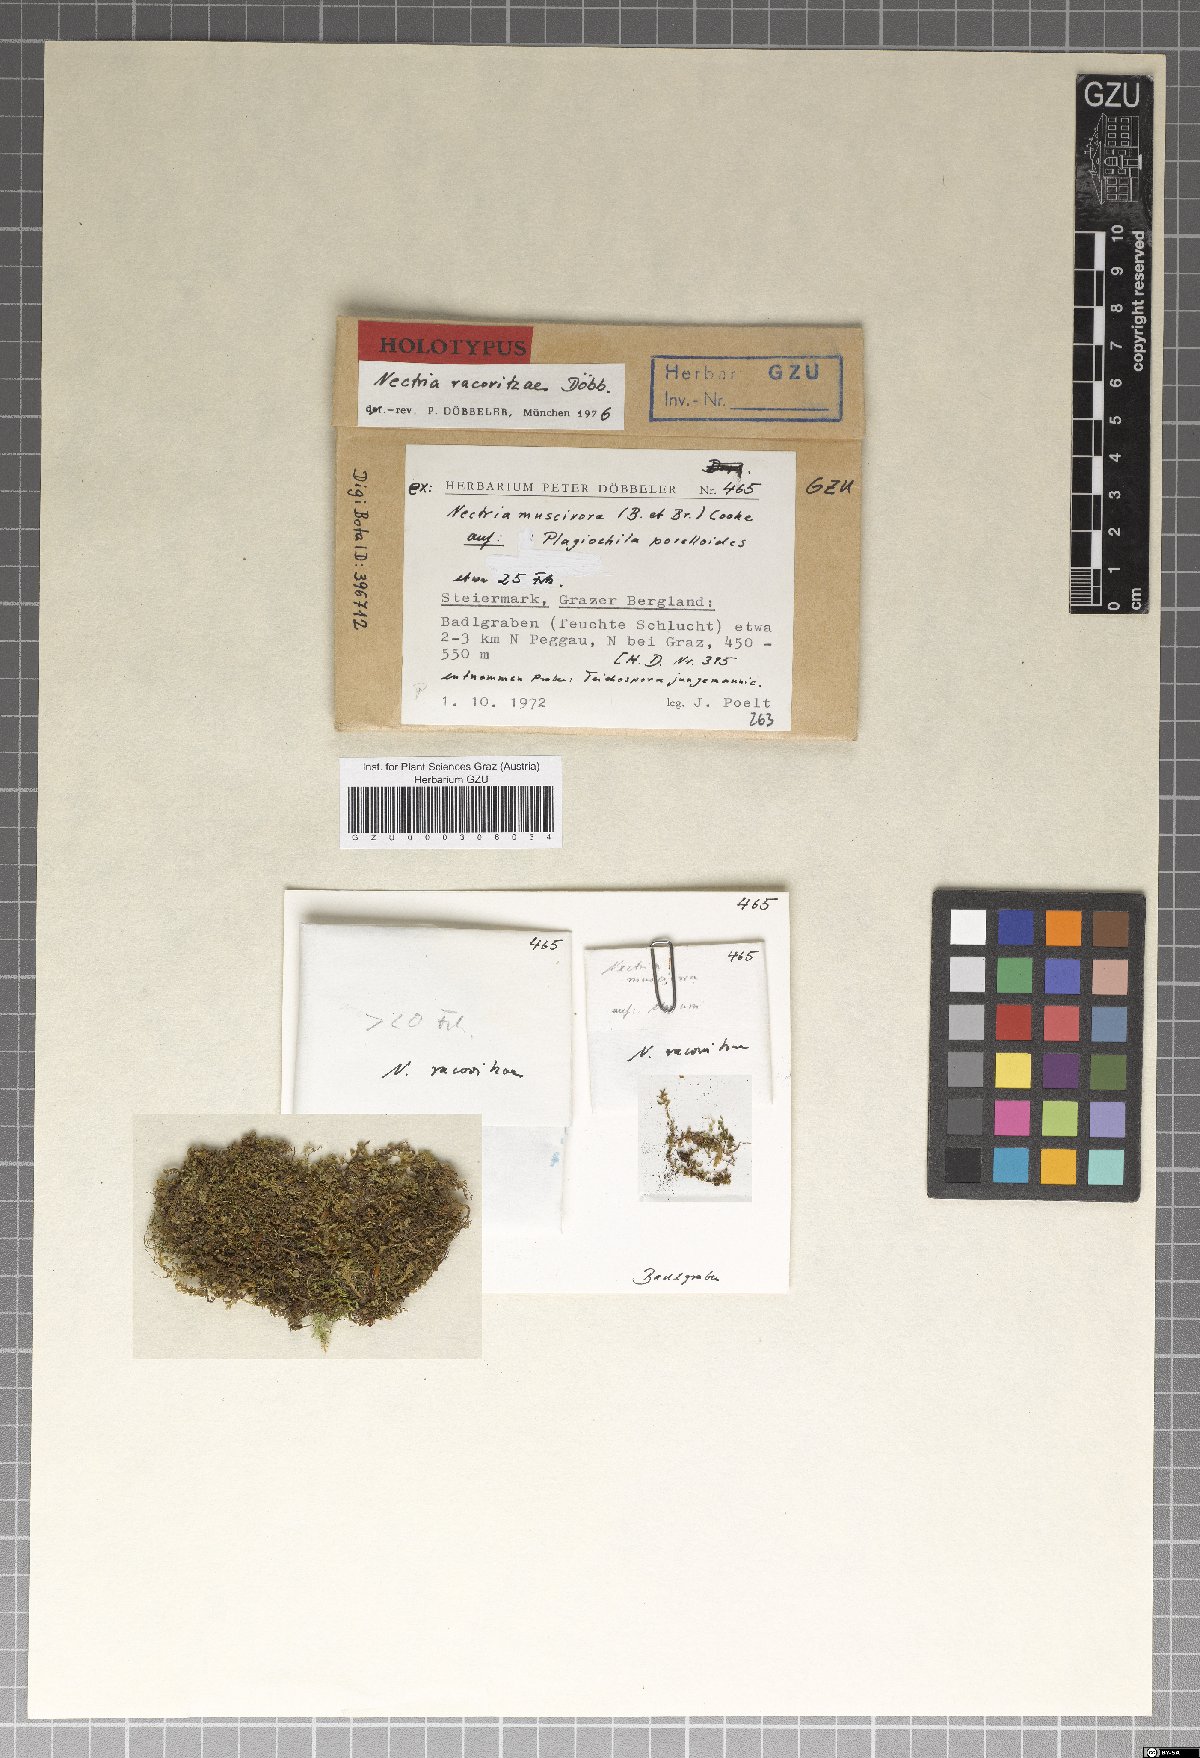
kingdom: Fungi
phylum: Ascomycota
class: Sordariomycetes
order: Hypocreales
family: Nectriaceae
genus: Nectria
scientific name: Nectria racovitzae
